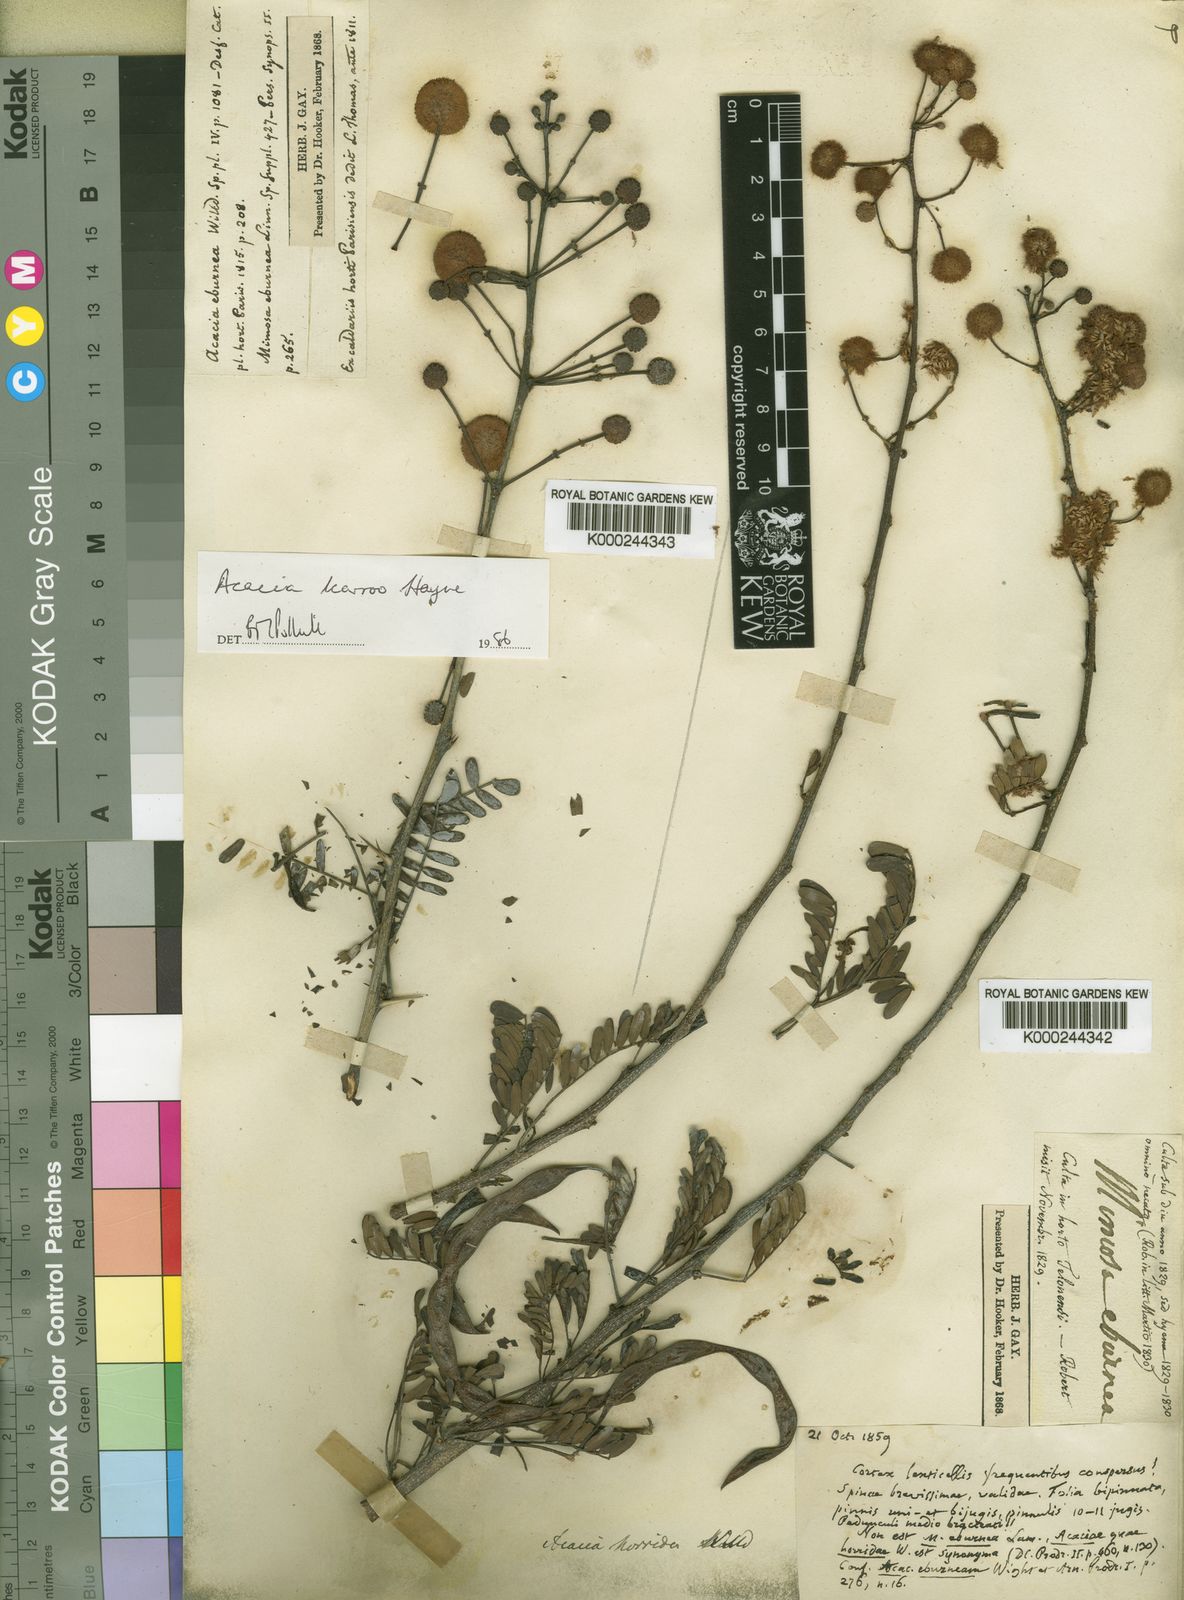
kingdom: Plantae
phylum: Tracheophyta
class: Magnoliopsida
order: Fabales
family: Fabaceae
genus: Vachellia
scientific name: Vachellia karroo
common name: Sweet thorn
